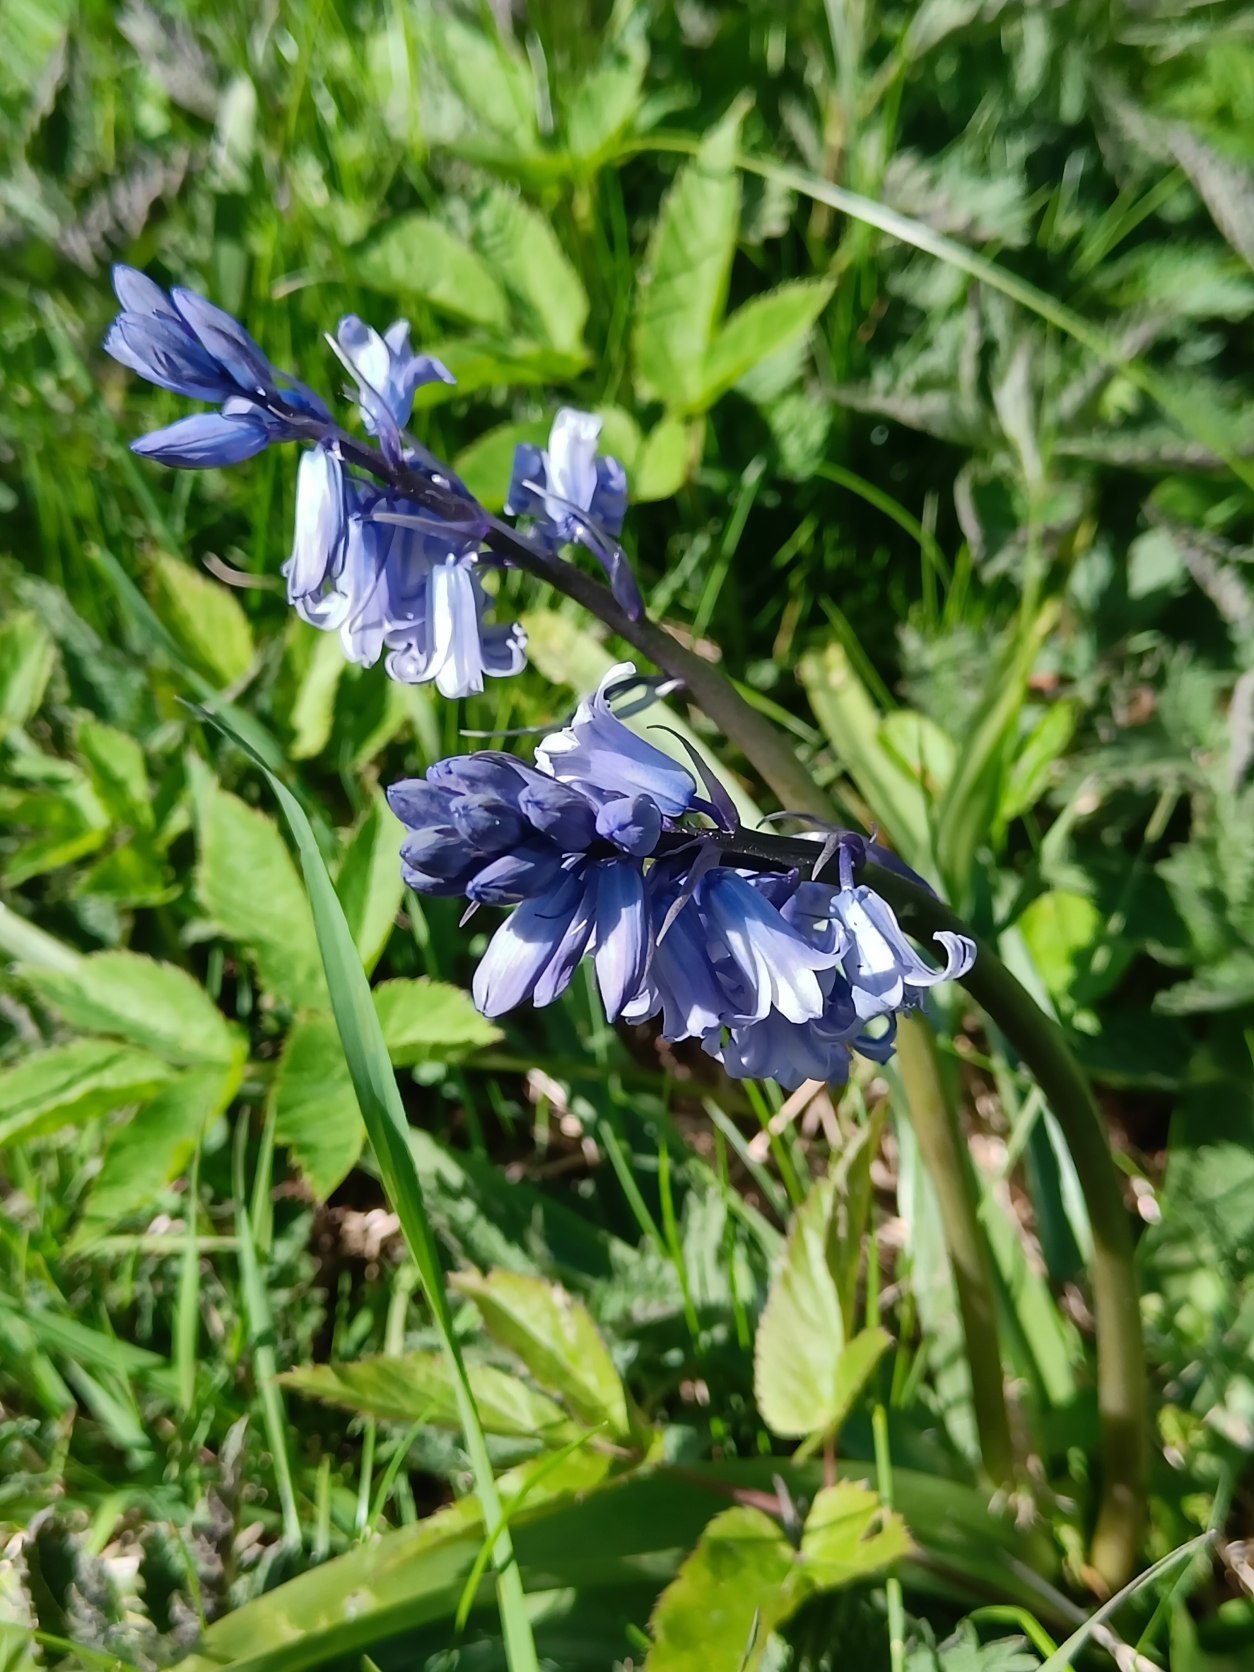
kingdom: Plantae
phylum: Tracheophyta
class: Liliopsida
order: Asparagales
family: Asparagaceae
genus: Hyacinthoides
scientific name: Hyacinthoides massartiana
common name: Hybrid-klokkeskilla
